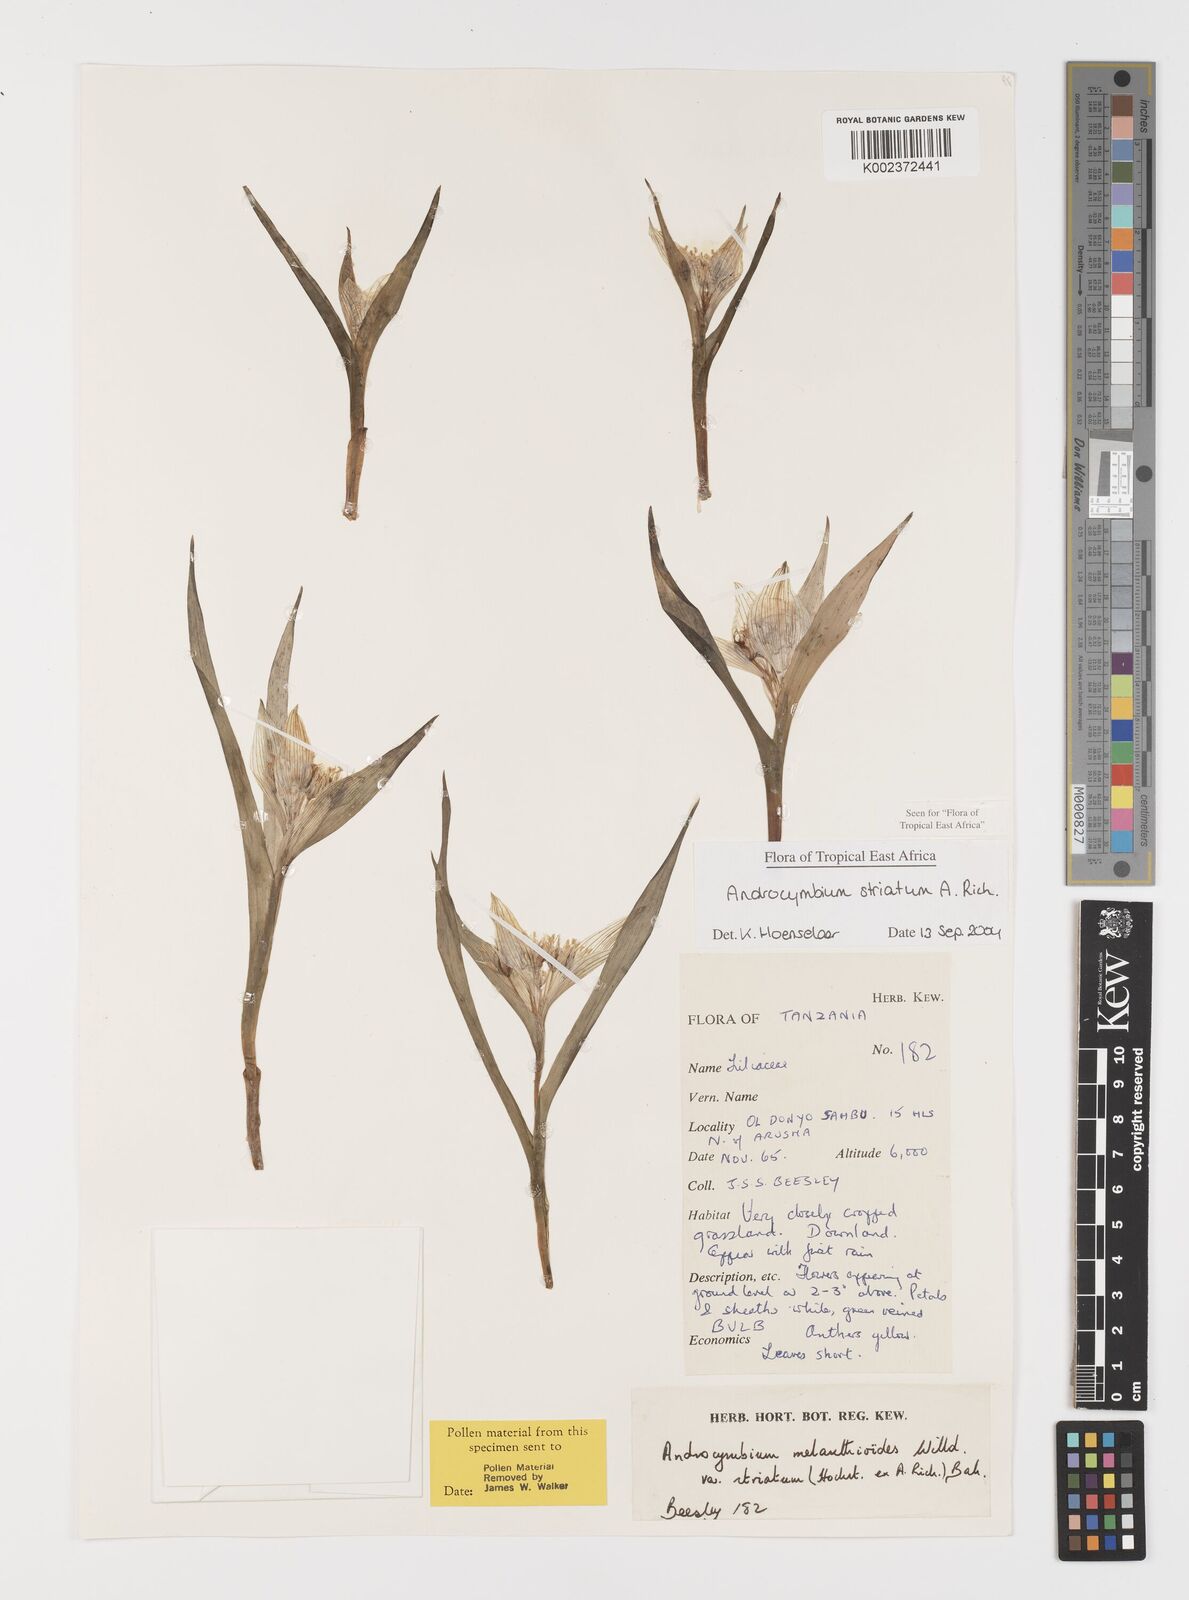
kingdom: Plantae
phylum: Tracheophyta
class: Liliopsida
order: Liliales
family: Colchicaceae
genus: Colchicum
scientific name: Colchicum striatum
